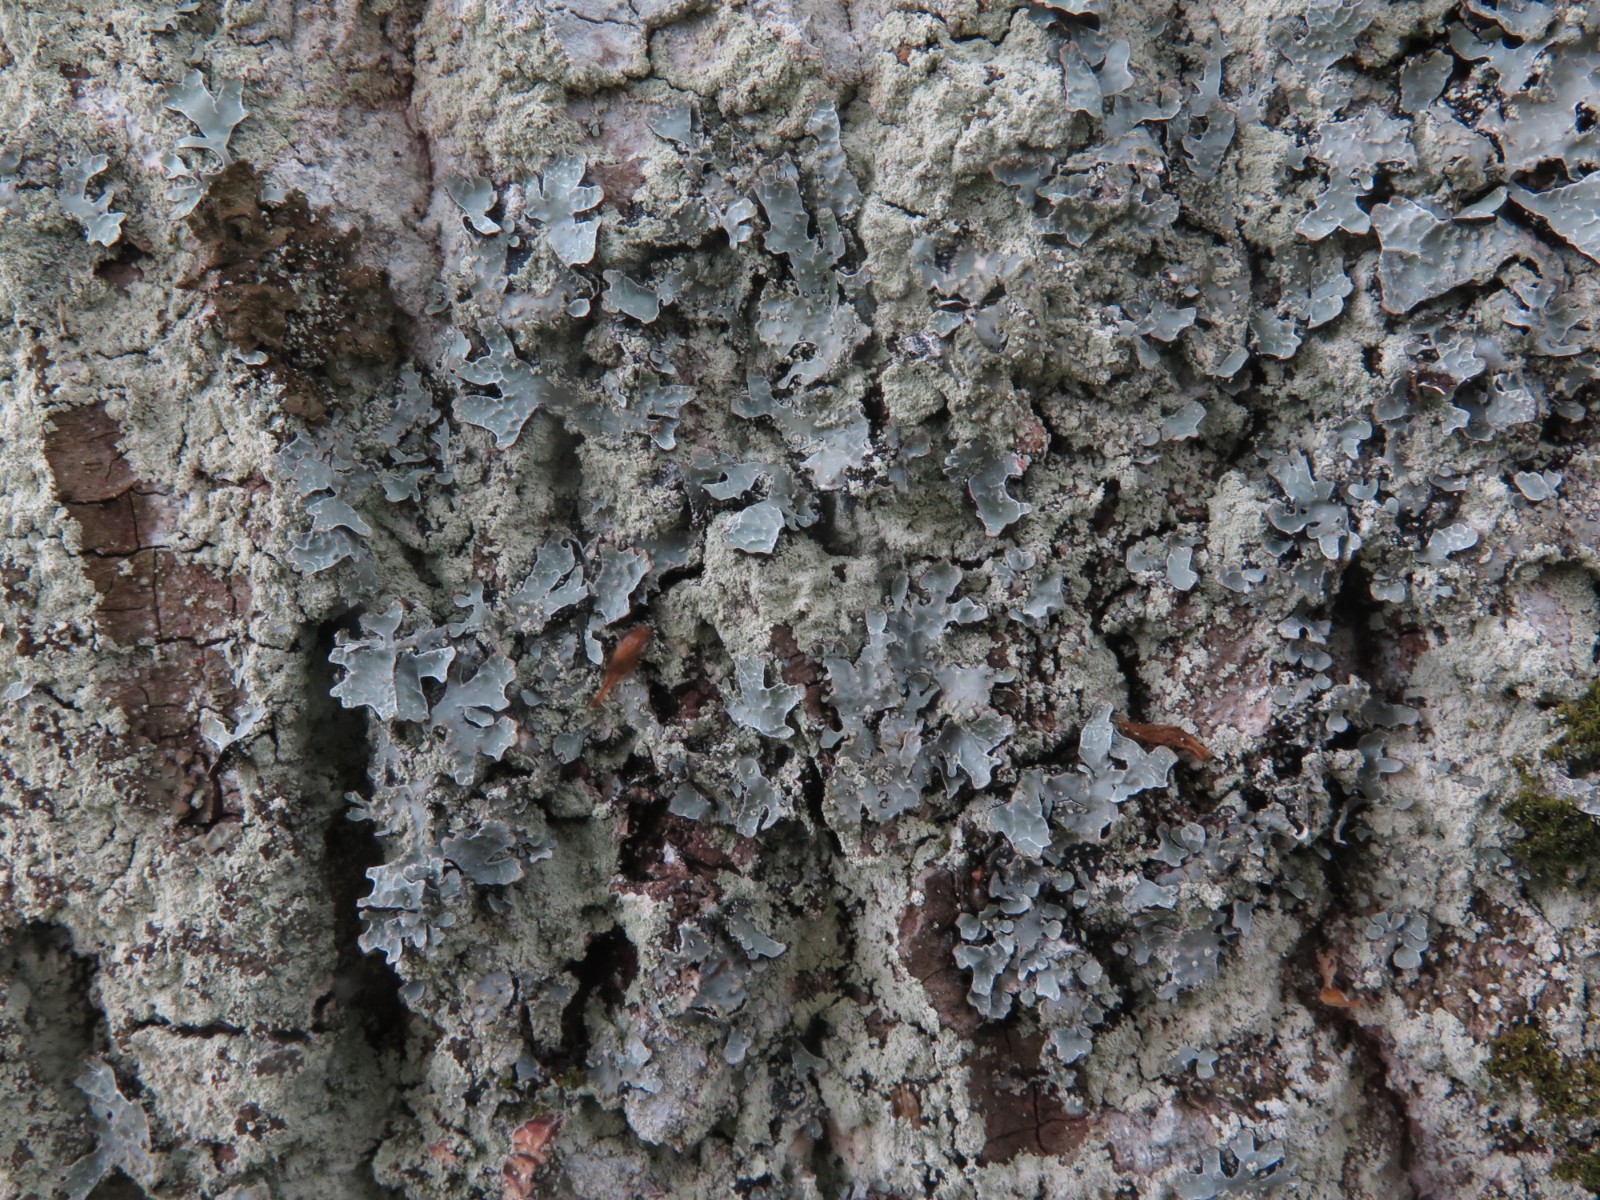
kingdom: Fungi
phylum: Ascomycota
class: Lecanoromycetes
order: Lecanorales
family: Parmeliaceae
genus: Parmelia
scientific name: Parmelia sulcata
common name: rynket skållav
